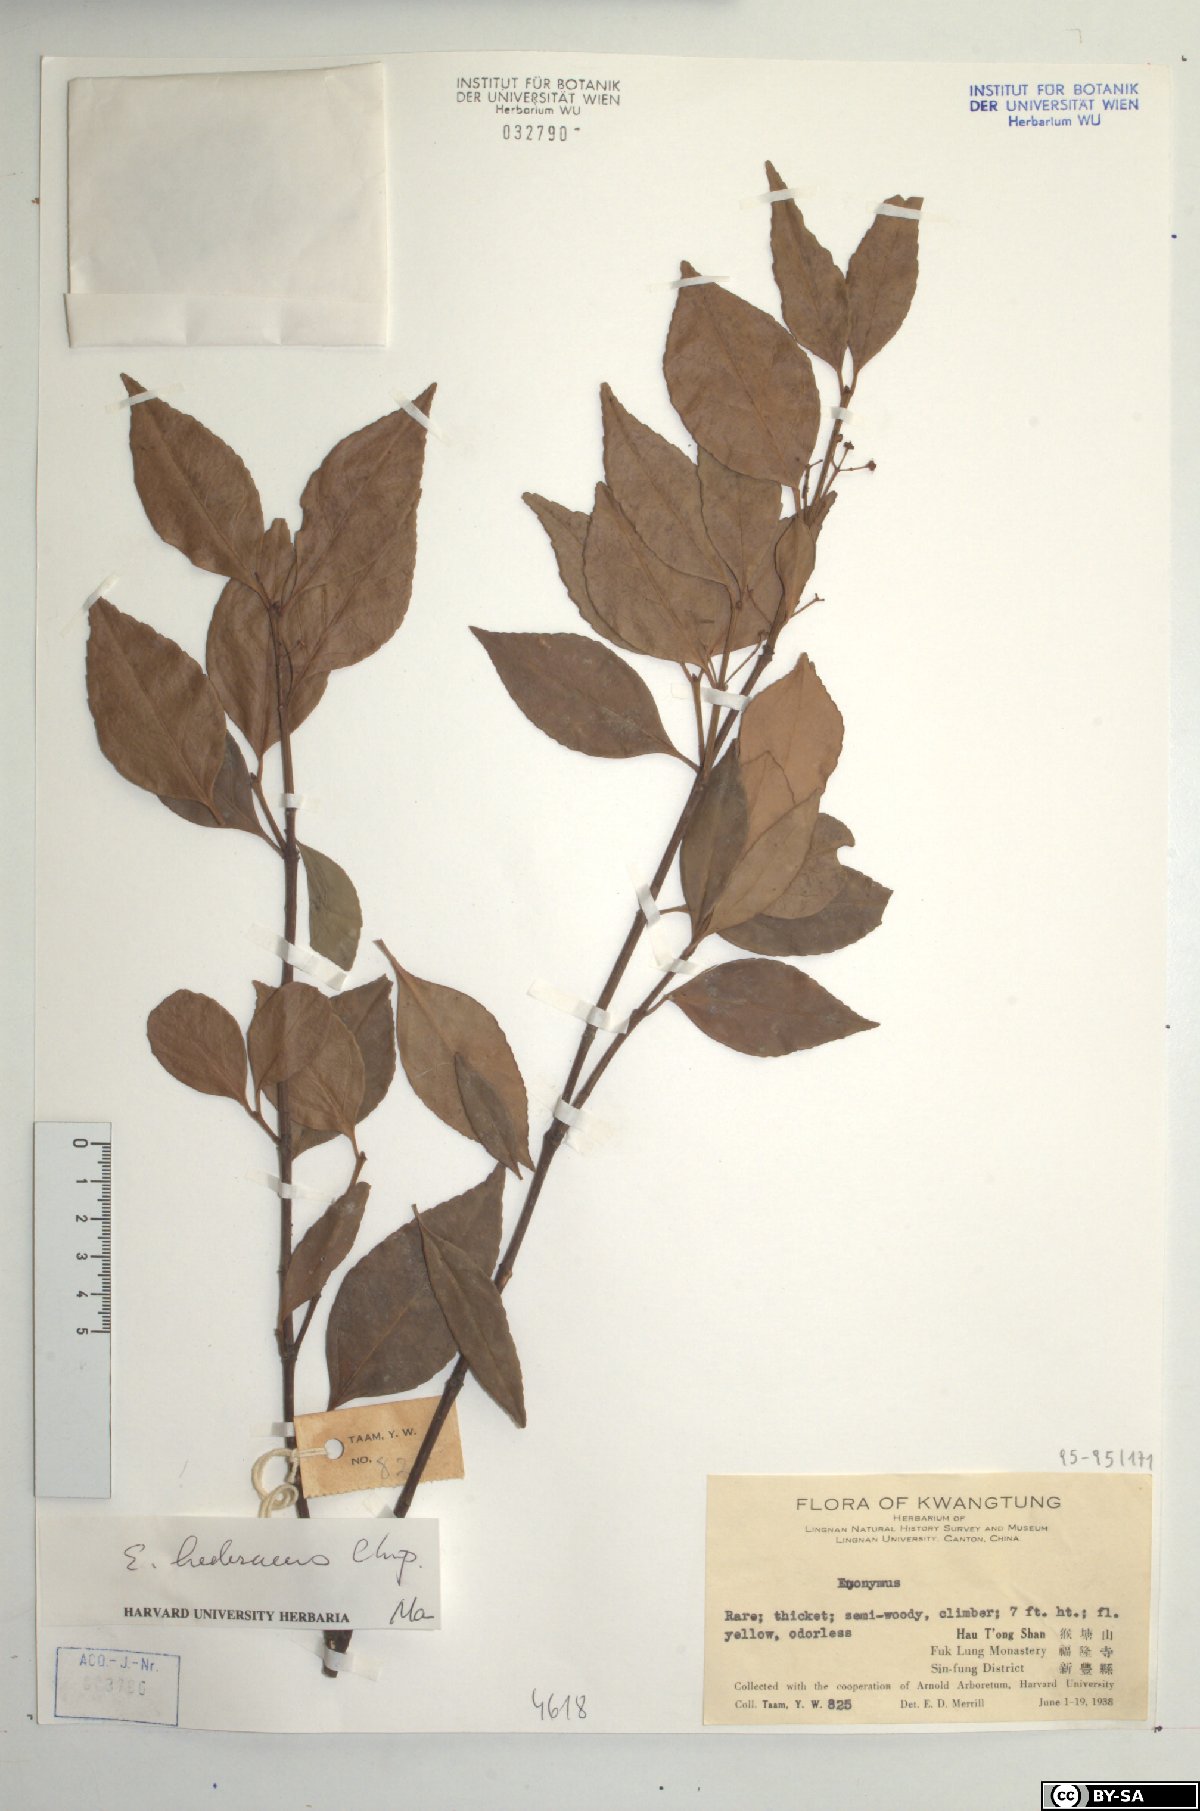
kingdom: Plantae
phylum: Tracheophyta
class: Magnoliopsida
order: Celastrales
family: Celastraceae
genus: Euonymus
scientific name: Euonymus fortunei
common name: Climbing euonymus
